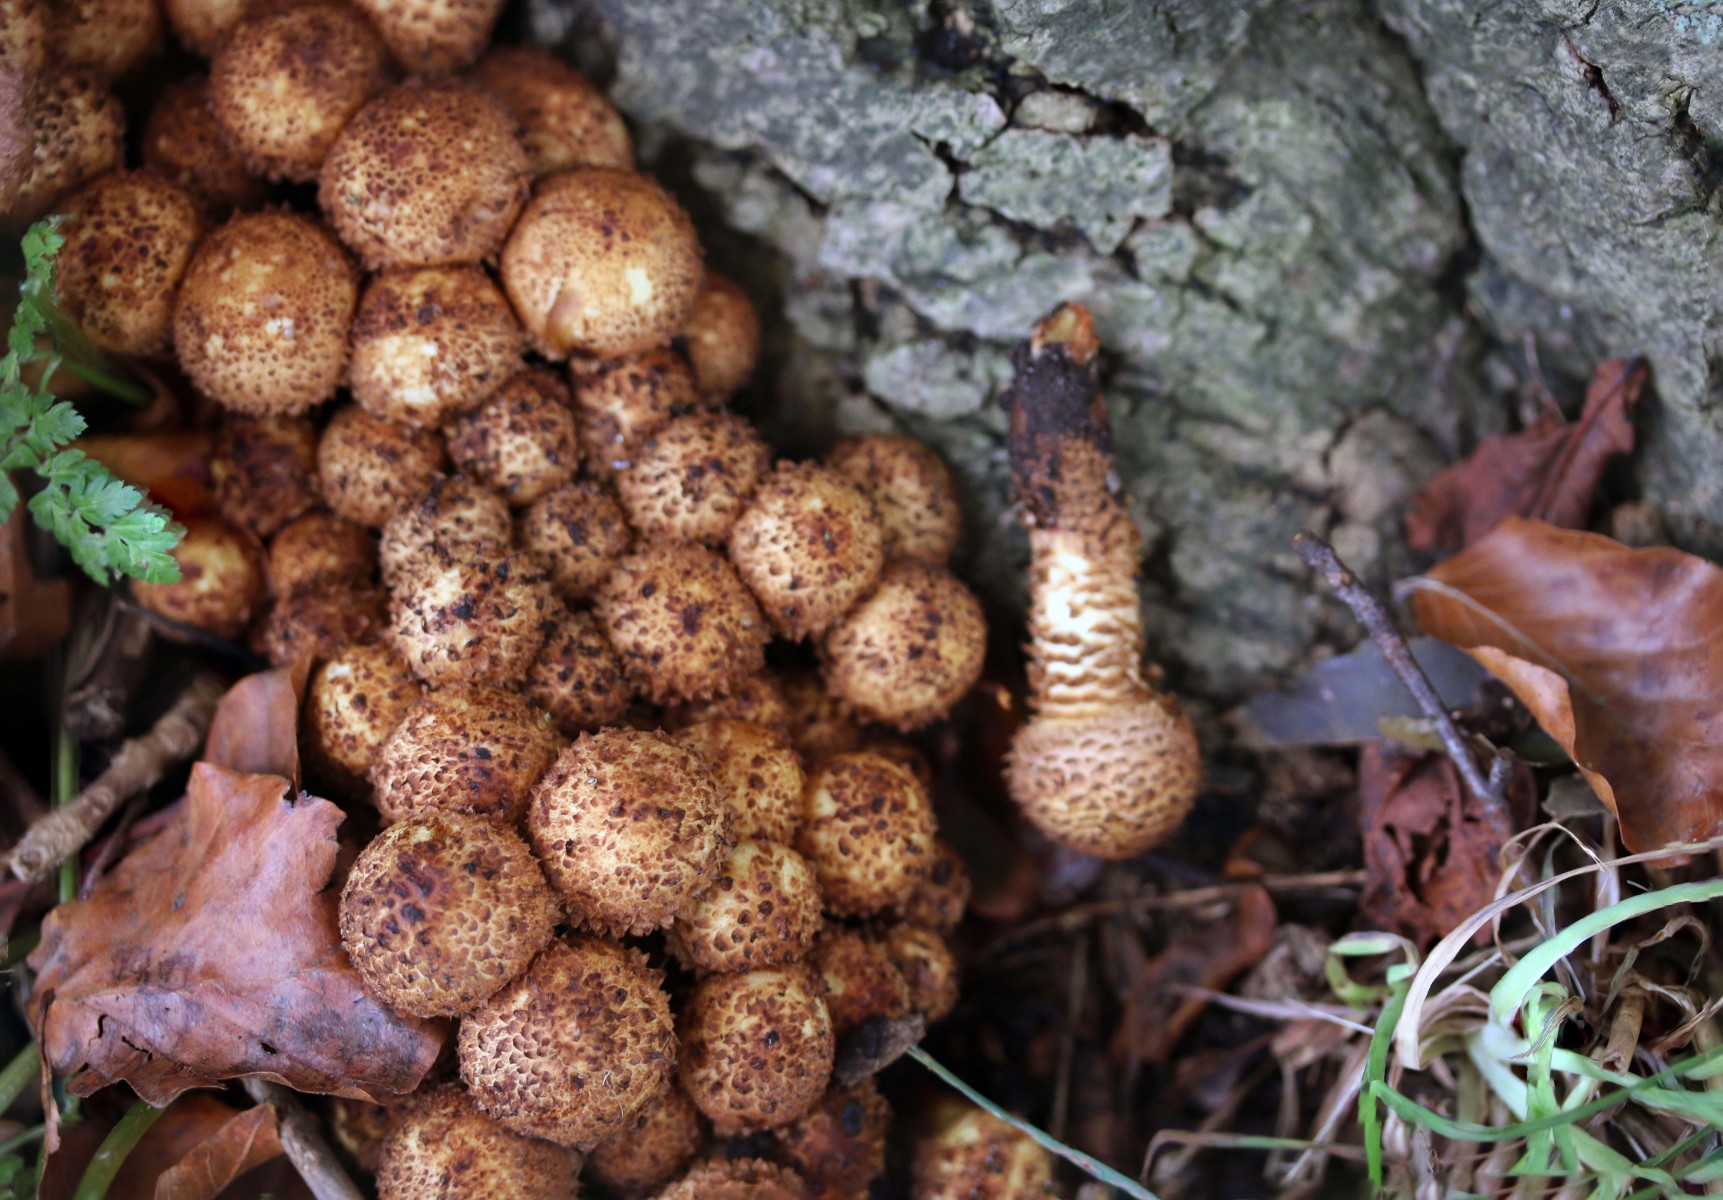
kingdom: Fungi
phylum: Basidiomycota
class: Agaricomycetes
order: Agaricales
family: Strophariaceae
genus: Pholiota
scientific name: Pholiota squarrosa
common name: krumskællet skælhat
